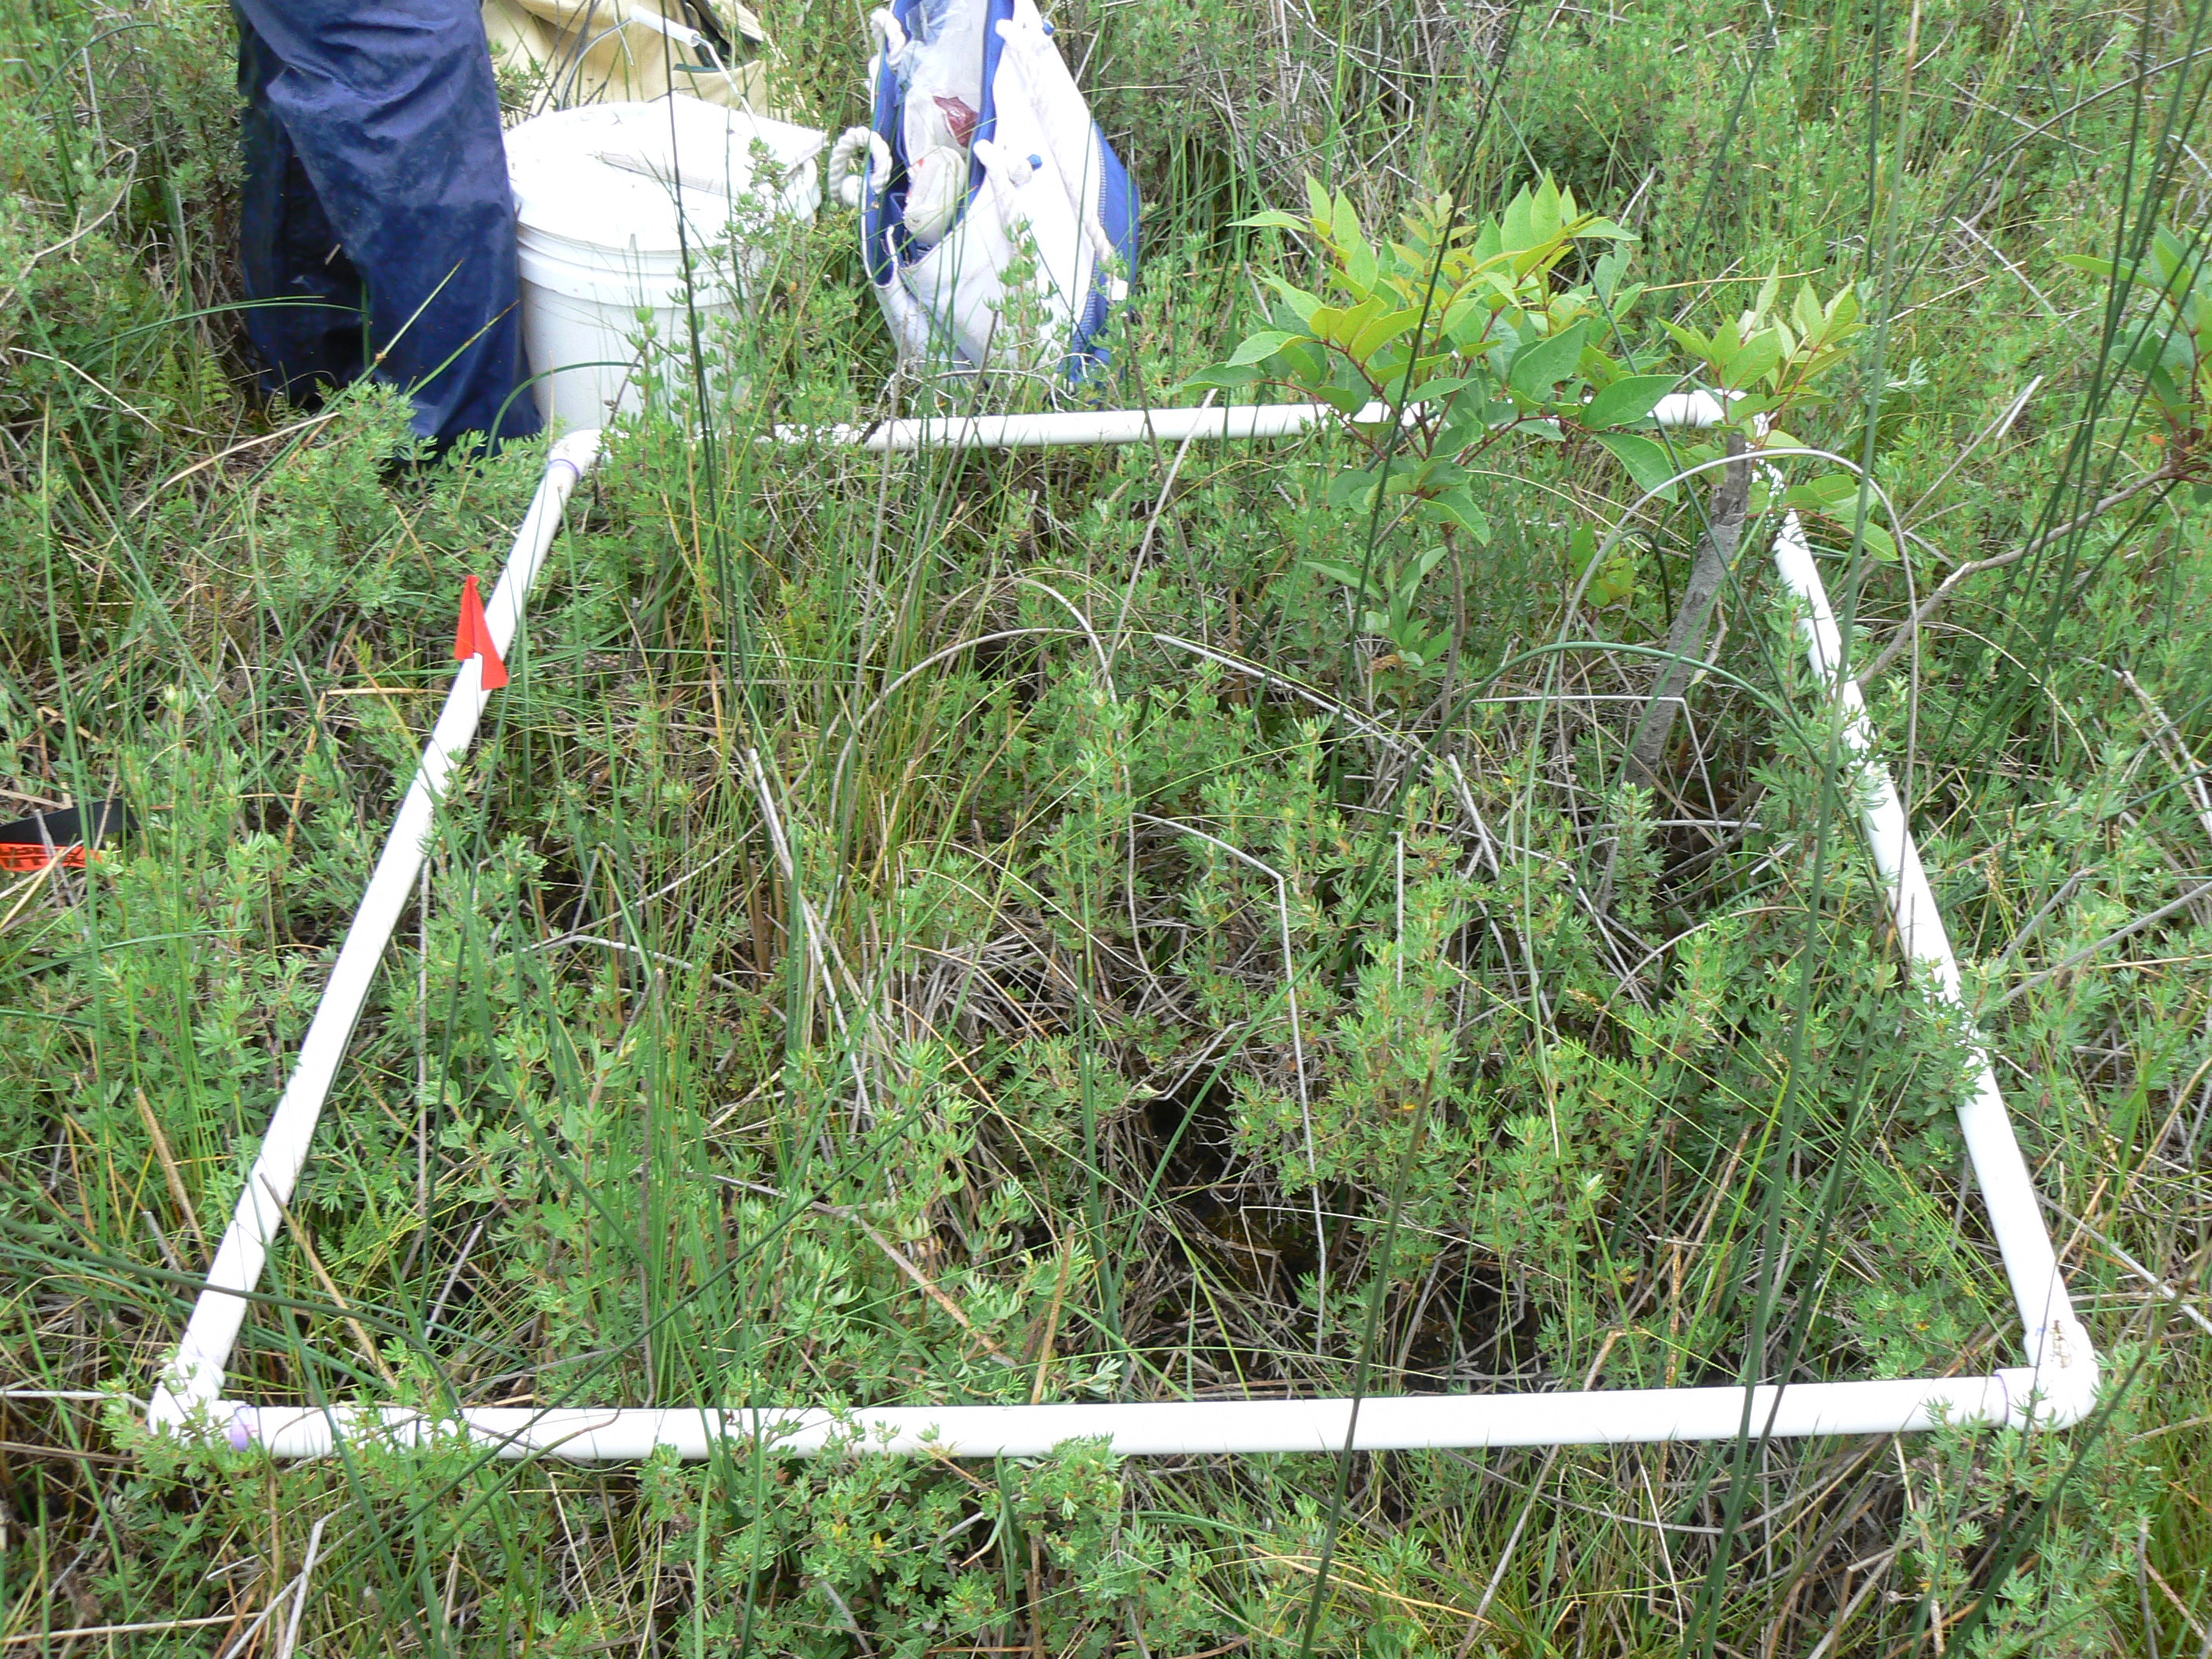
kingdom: Plantae
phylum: Tracheophyta
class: Liliopsida
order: Poales
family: Cyperaceae
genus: Carex
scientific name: Carex sterilis
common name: Dioecious sedge
